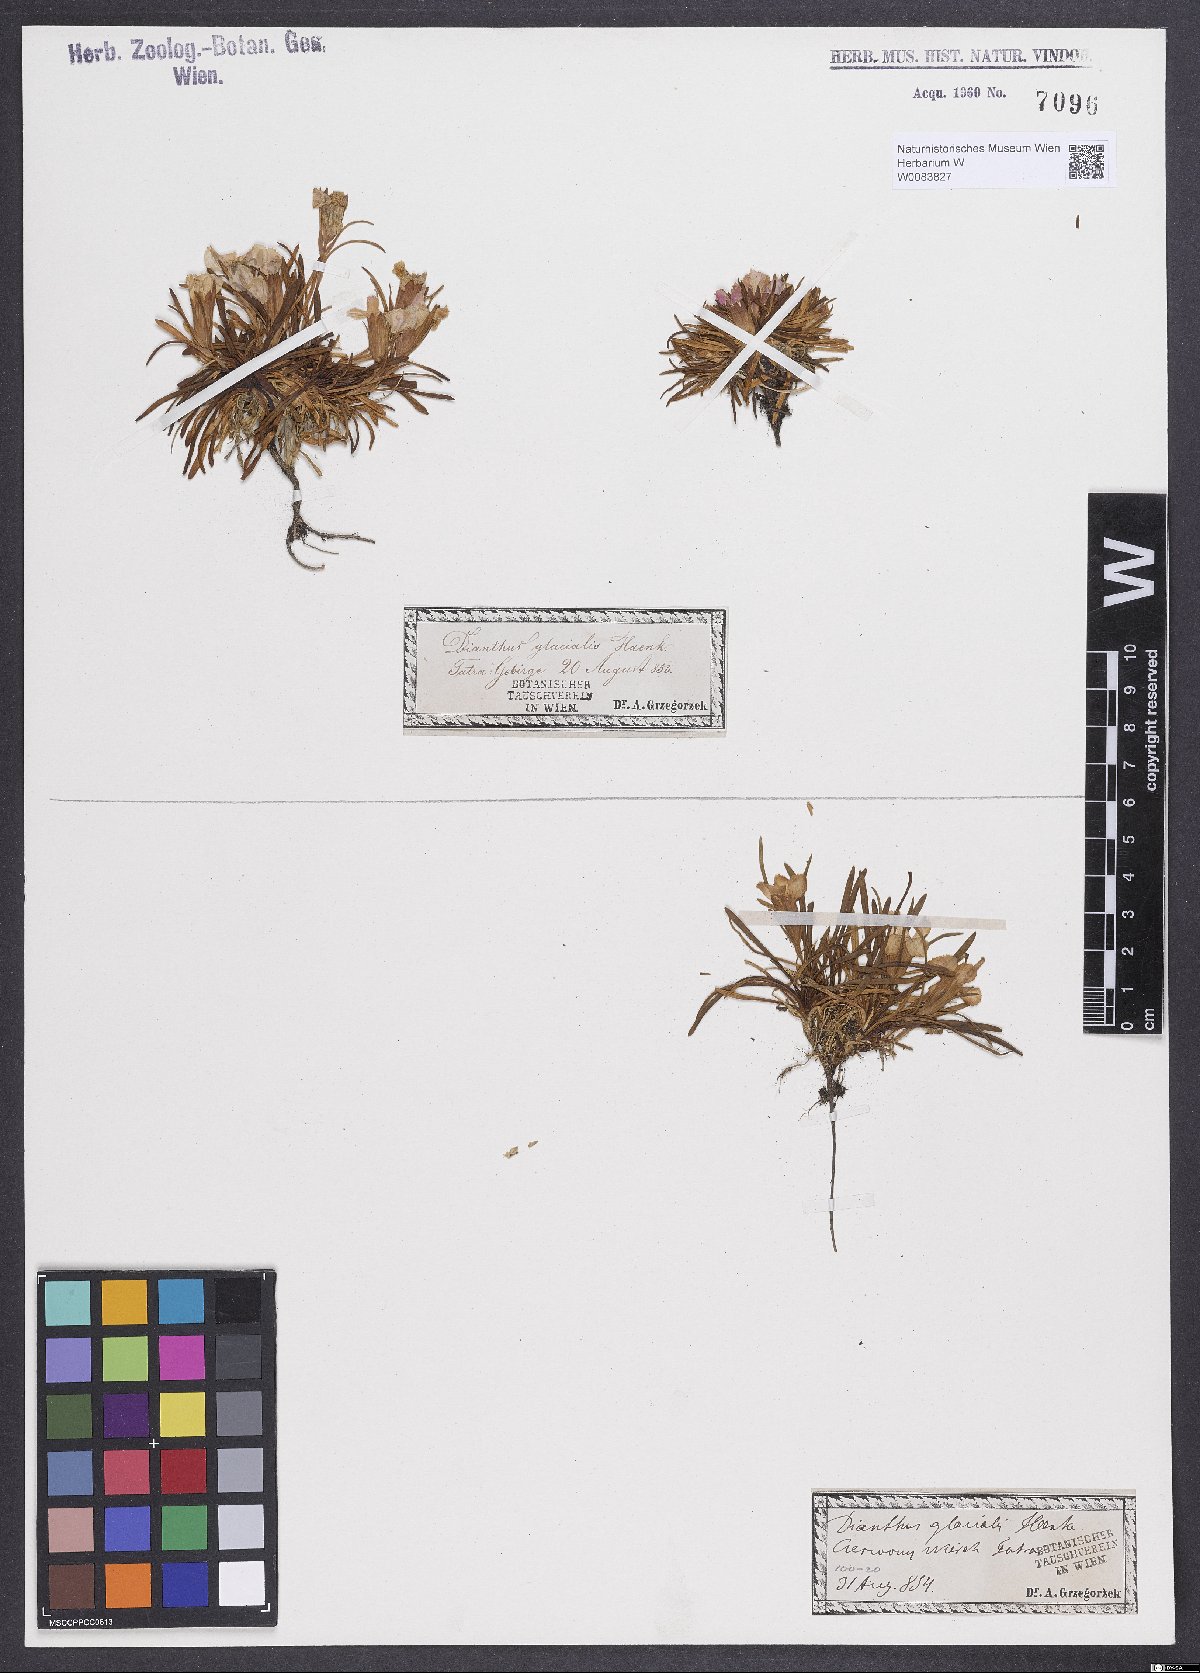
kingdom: Plantae
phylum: Tracheophyta
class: Magnoliopsida
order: Caryophyllales
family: Caryophyllaceae
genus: Dianthus
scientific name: Dianthus glacialis
